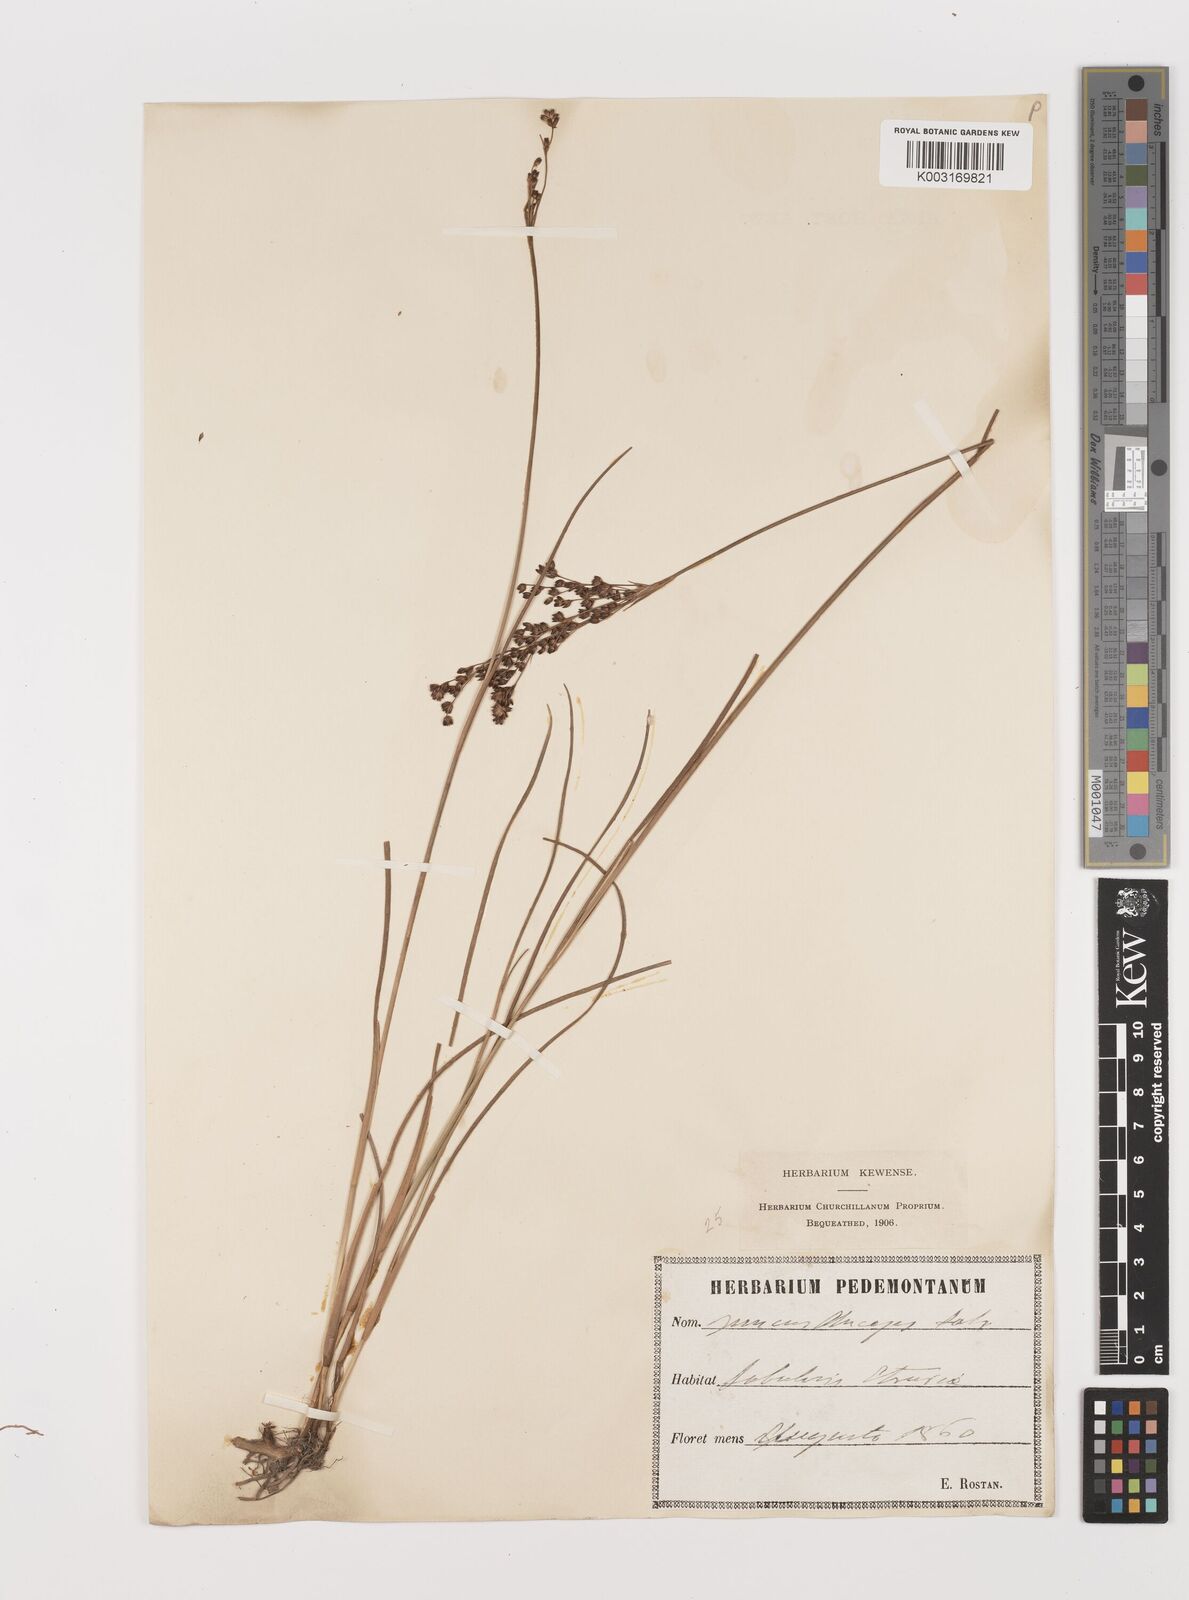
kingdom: Plantae
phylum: Tracheophyta
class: Liliopsida
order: Poales
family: Juncaceae
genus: Juncus
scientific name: Juncus anceps
